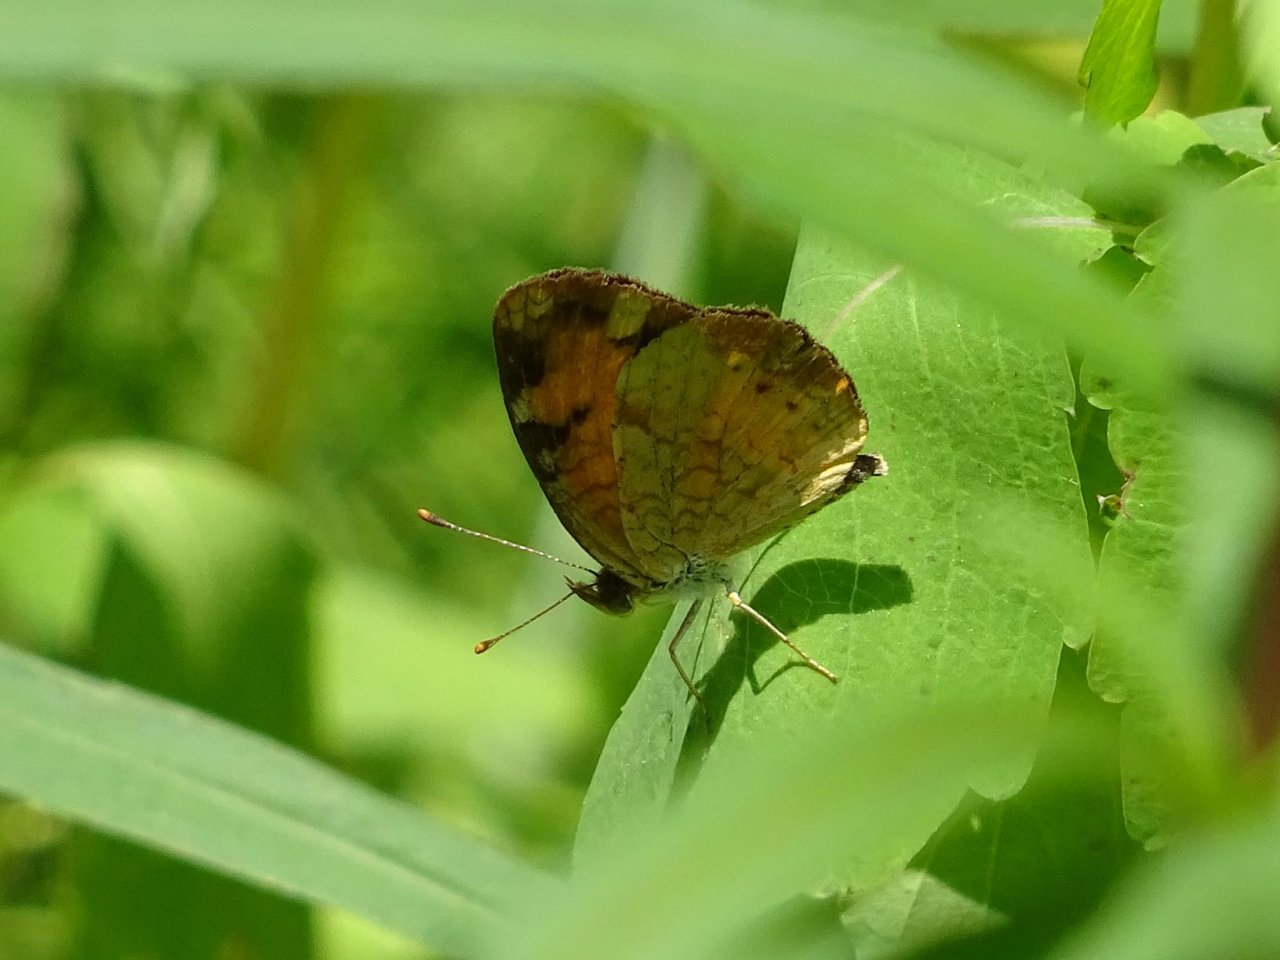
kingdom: Animalia
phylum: Arthropoda
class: Insecta
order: Lepidoptera
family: Nymphalidae
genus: Phyciodes
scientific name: Phyciodes tharos
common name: Northern Crescent
